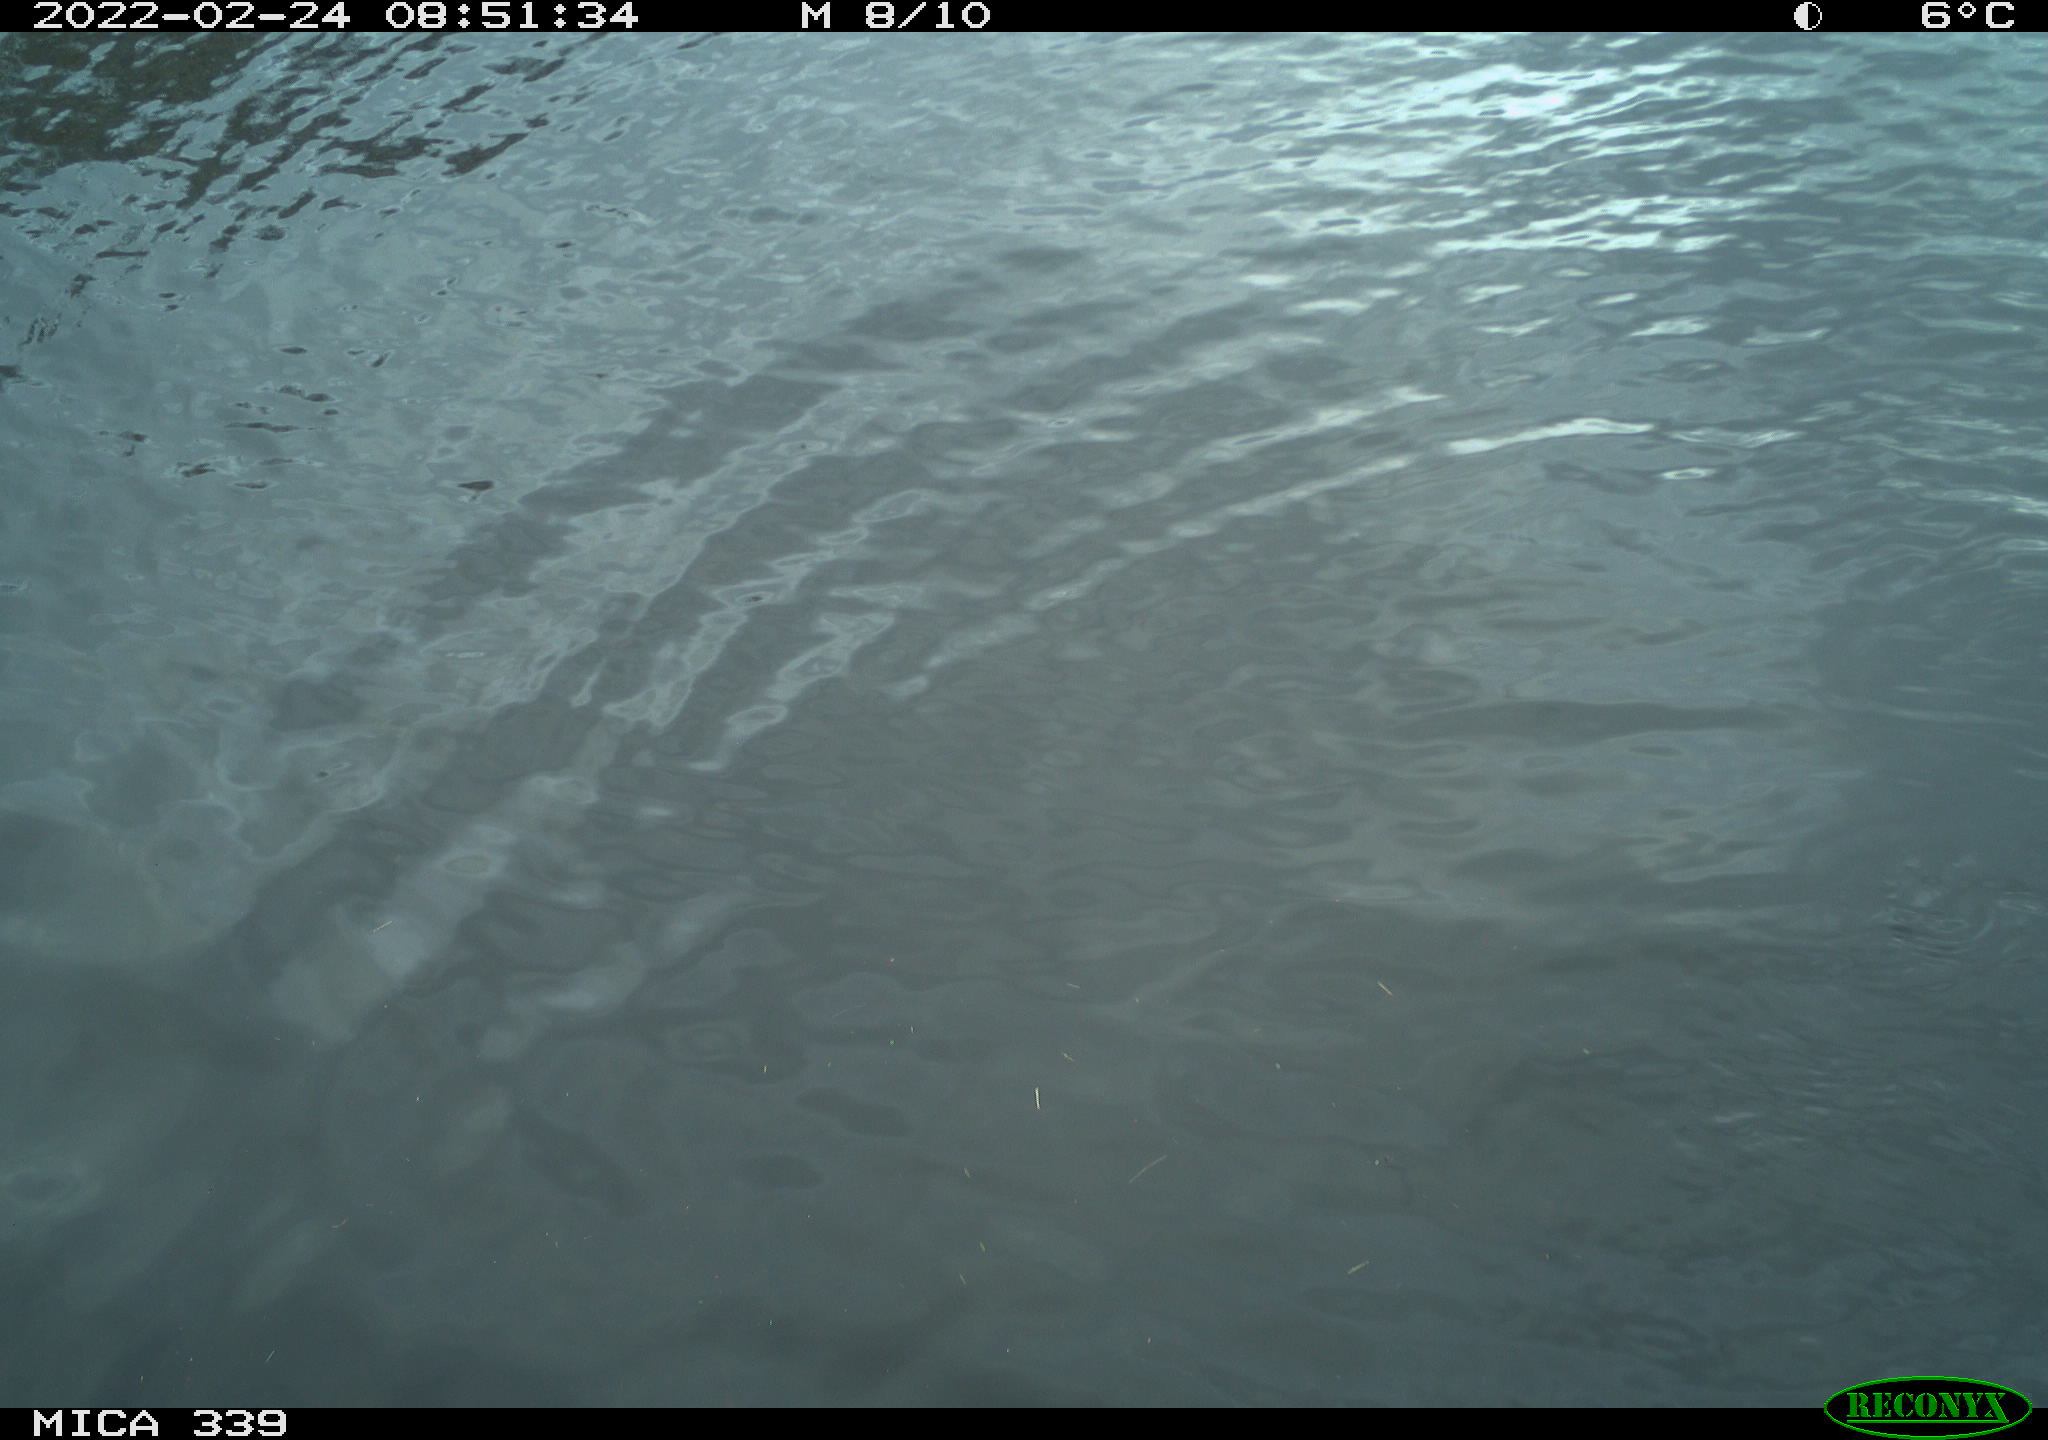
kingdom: Animalia
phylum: Chordata
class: Aves
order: Suliformes
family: Phalacrocoracidae
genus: Phalacrocorax
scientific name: Phalacrocorax carbo
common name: Great cormorant
